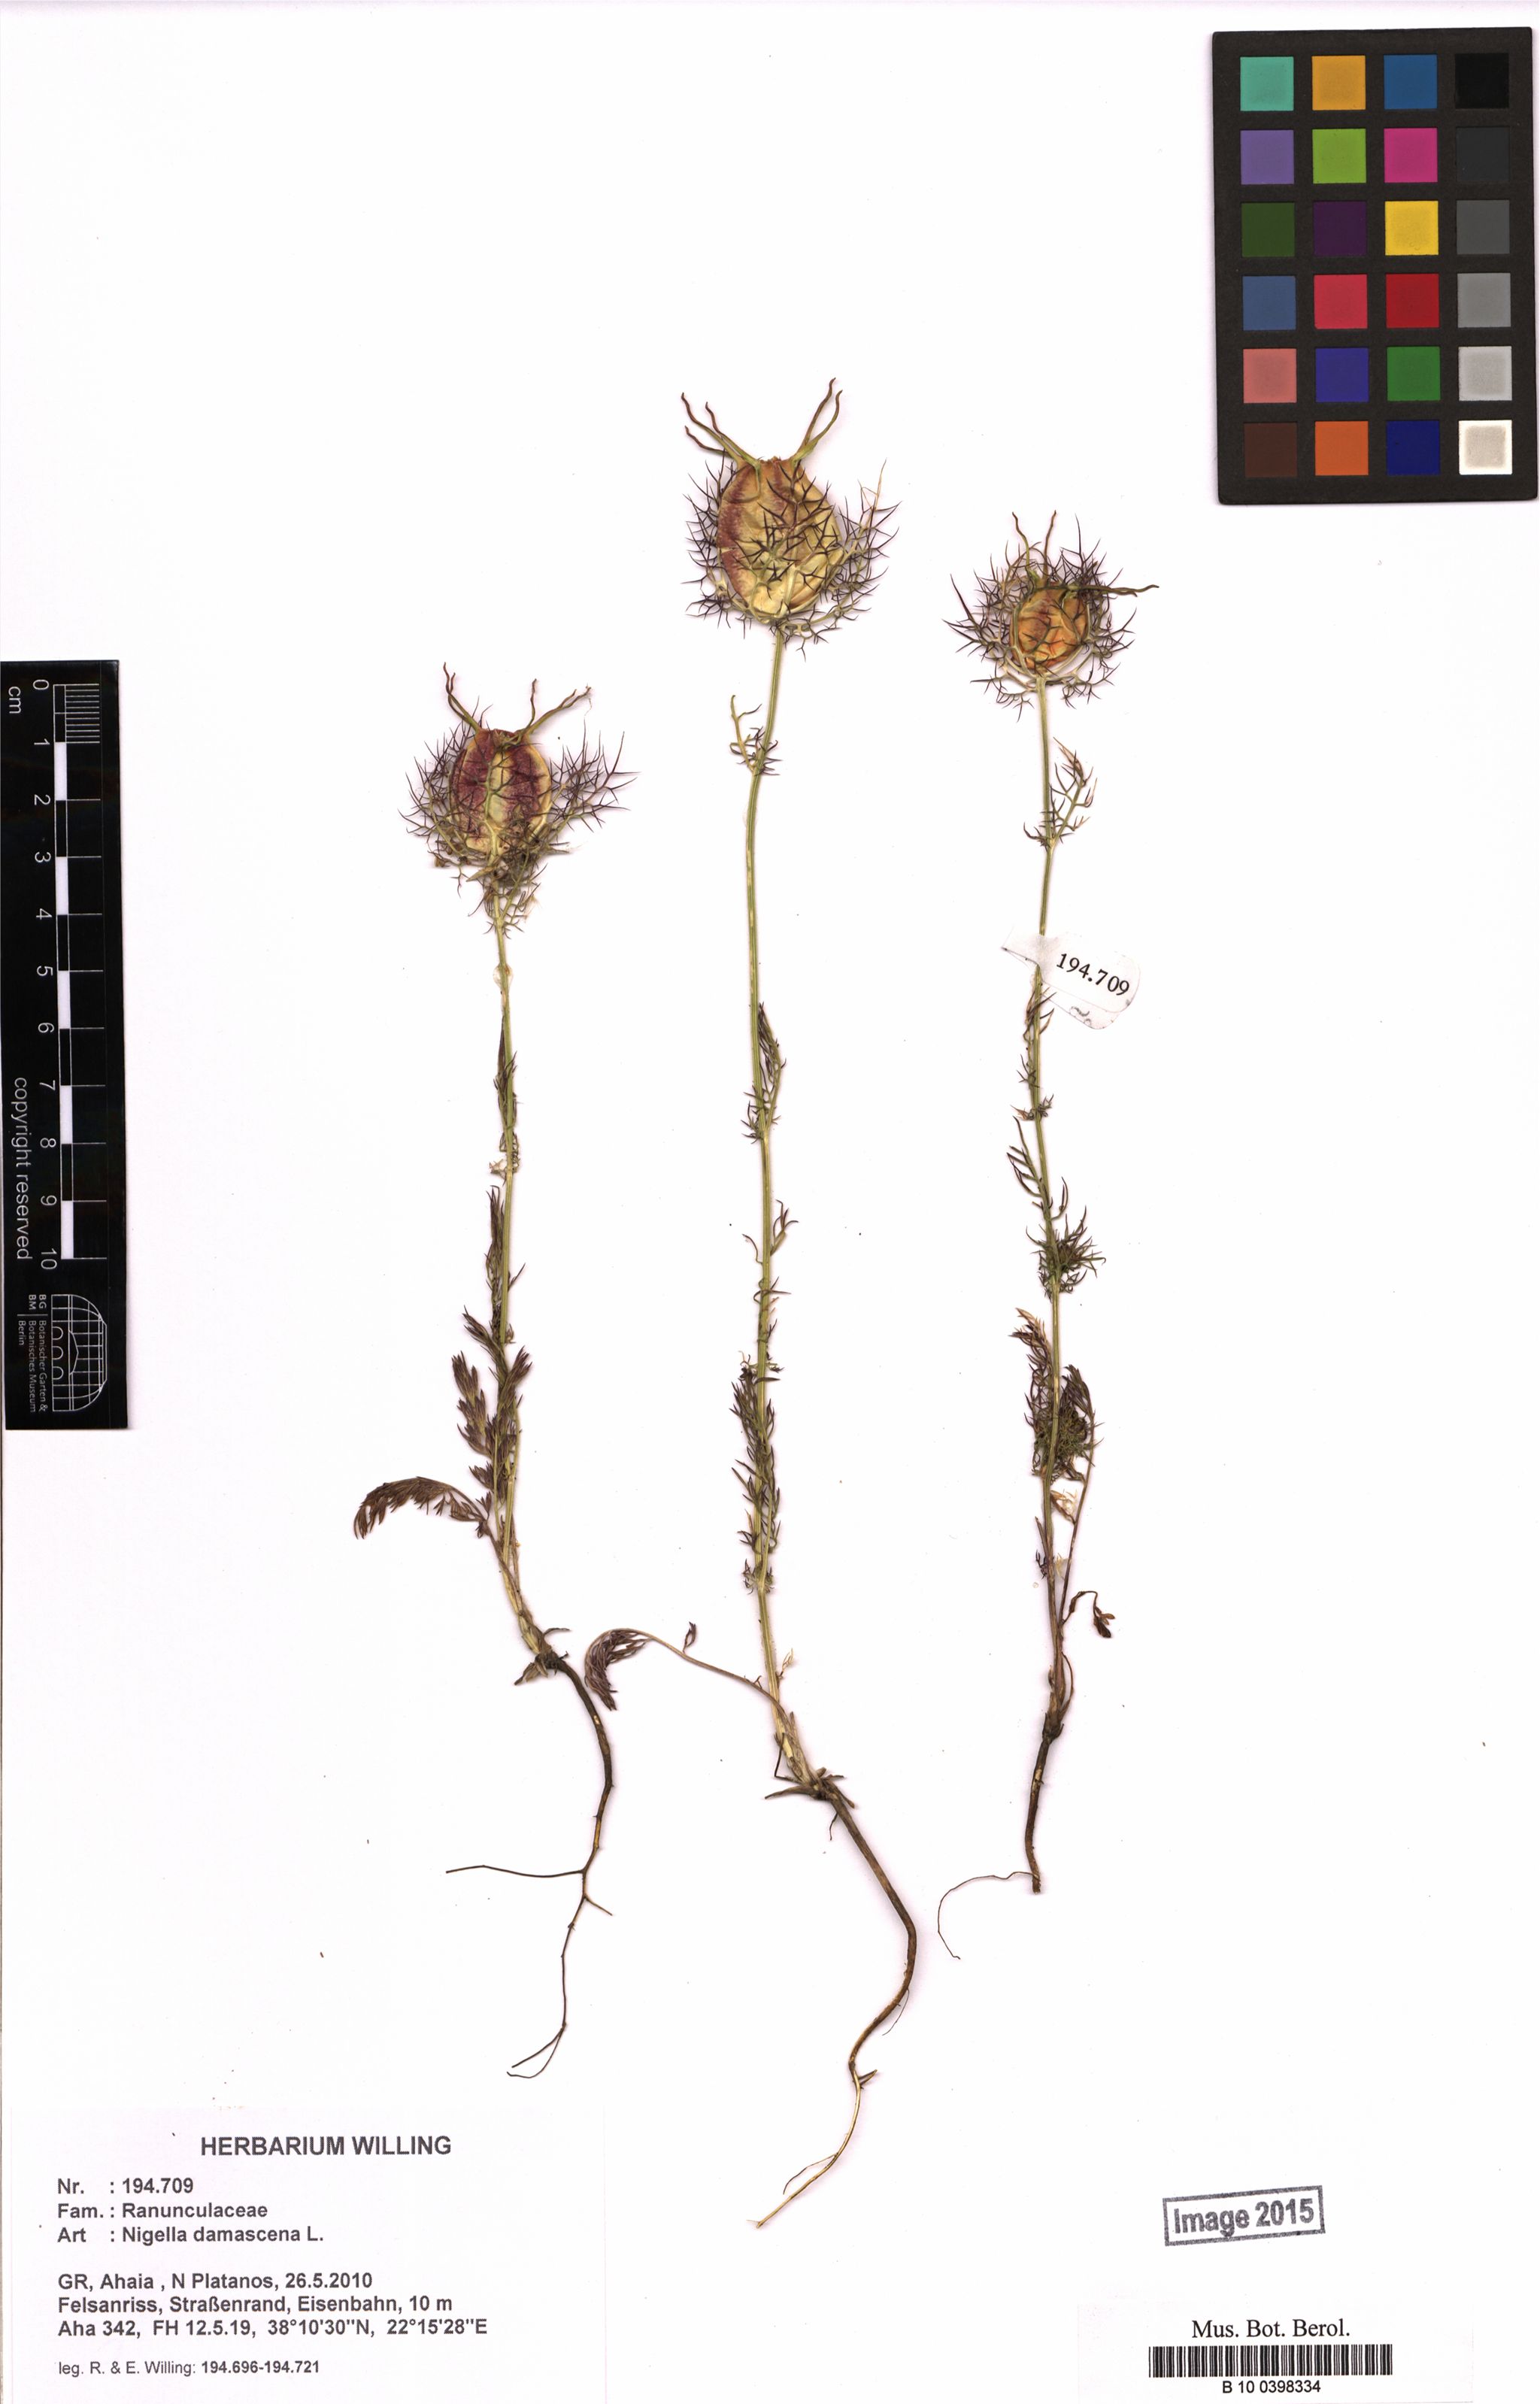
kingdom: Plantae
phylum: Tracheophyta
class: Magnoliopsida
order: Ranunculales
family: Ranunculaceae
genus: Nigella
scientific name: Nigella damascena
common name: Love-in-a-mist
